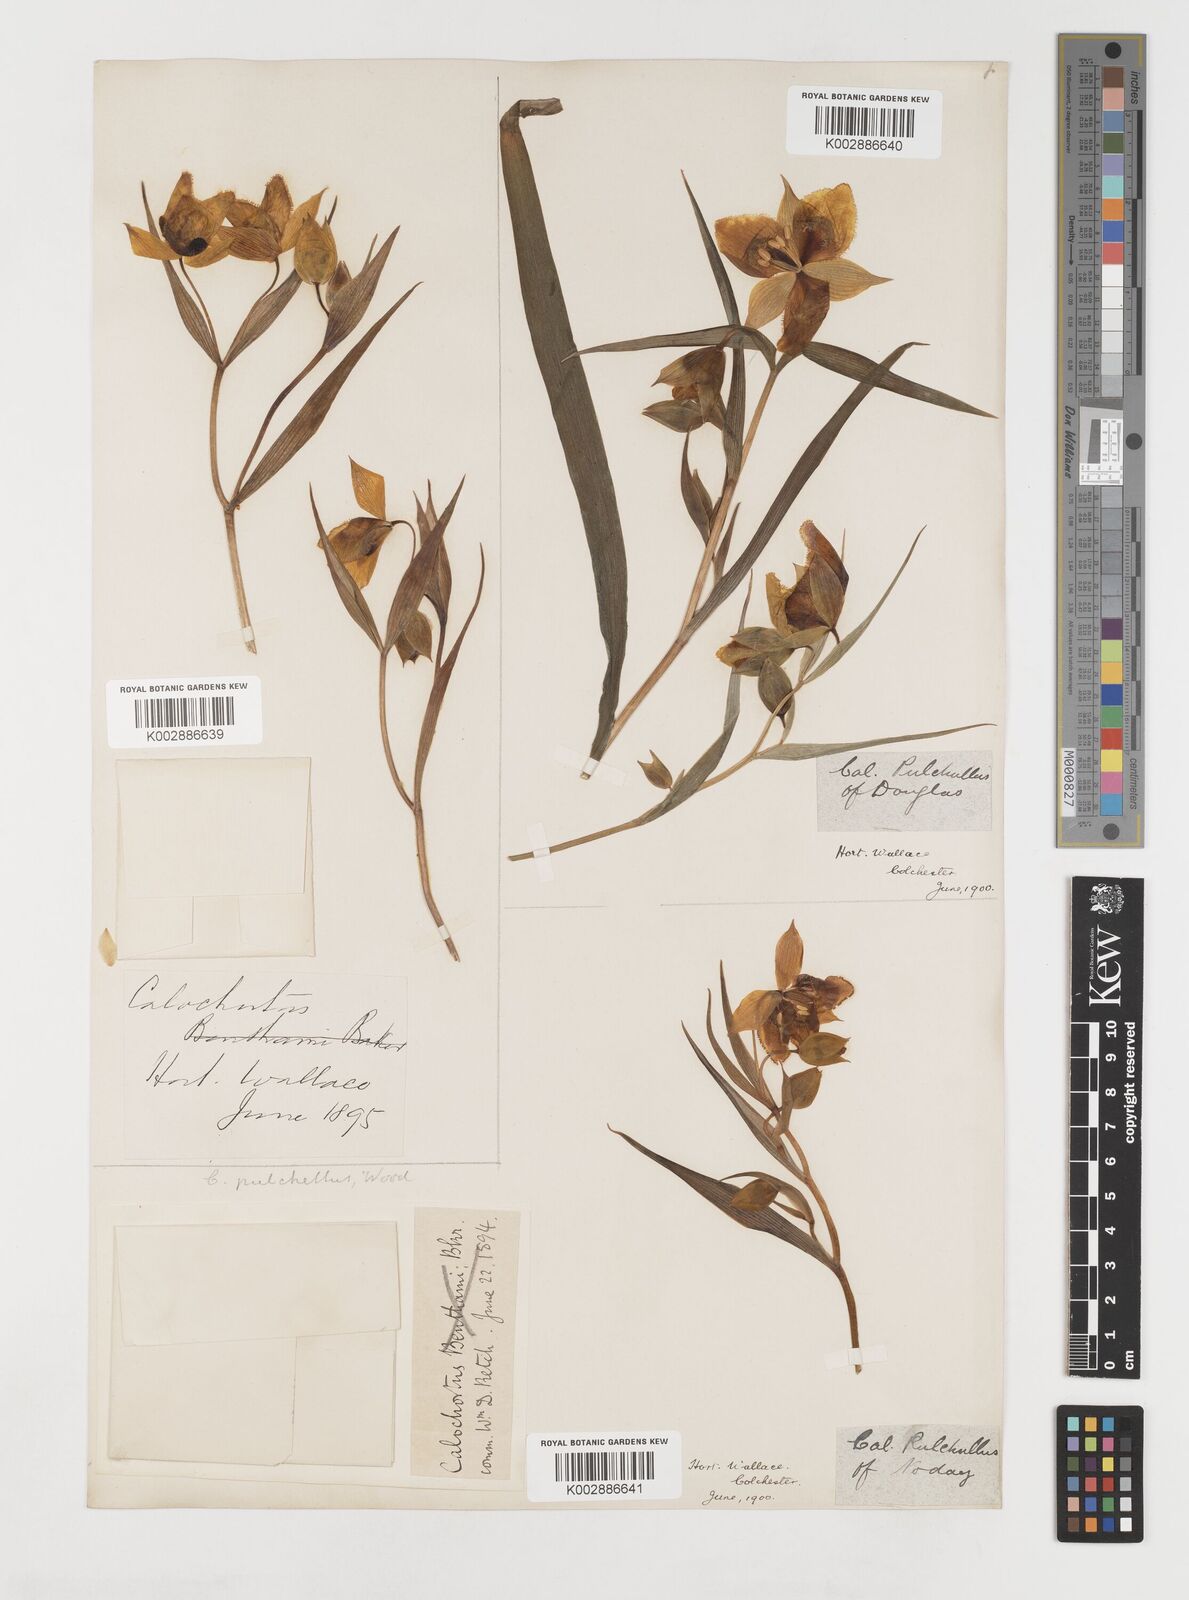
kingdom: Plantae
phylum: Tracheophyta
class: Liliopsida
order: Liliales
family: Liliaceae
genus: Calochortus
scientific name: Calochortus pulchellus
